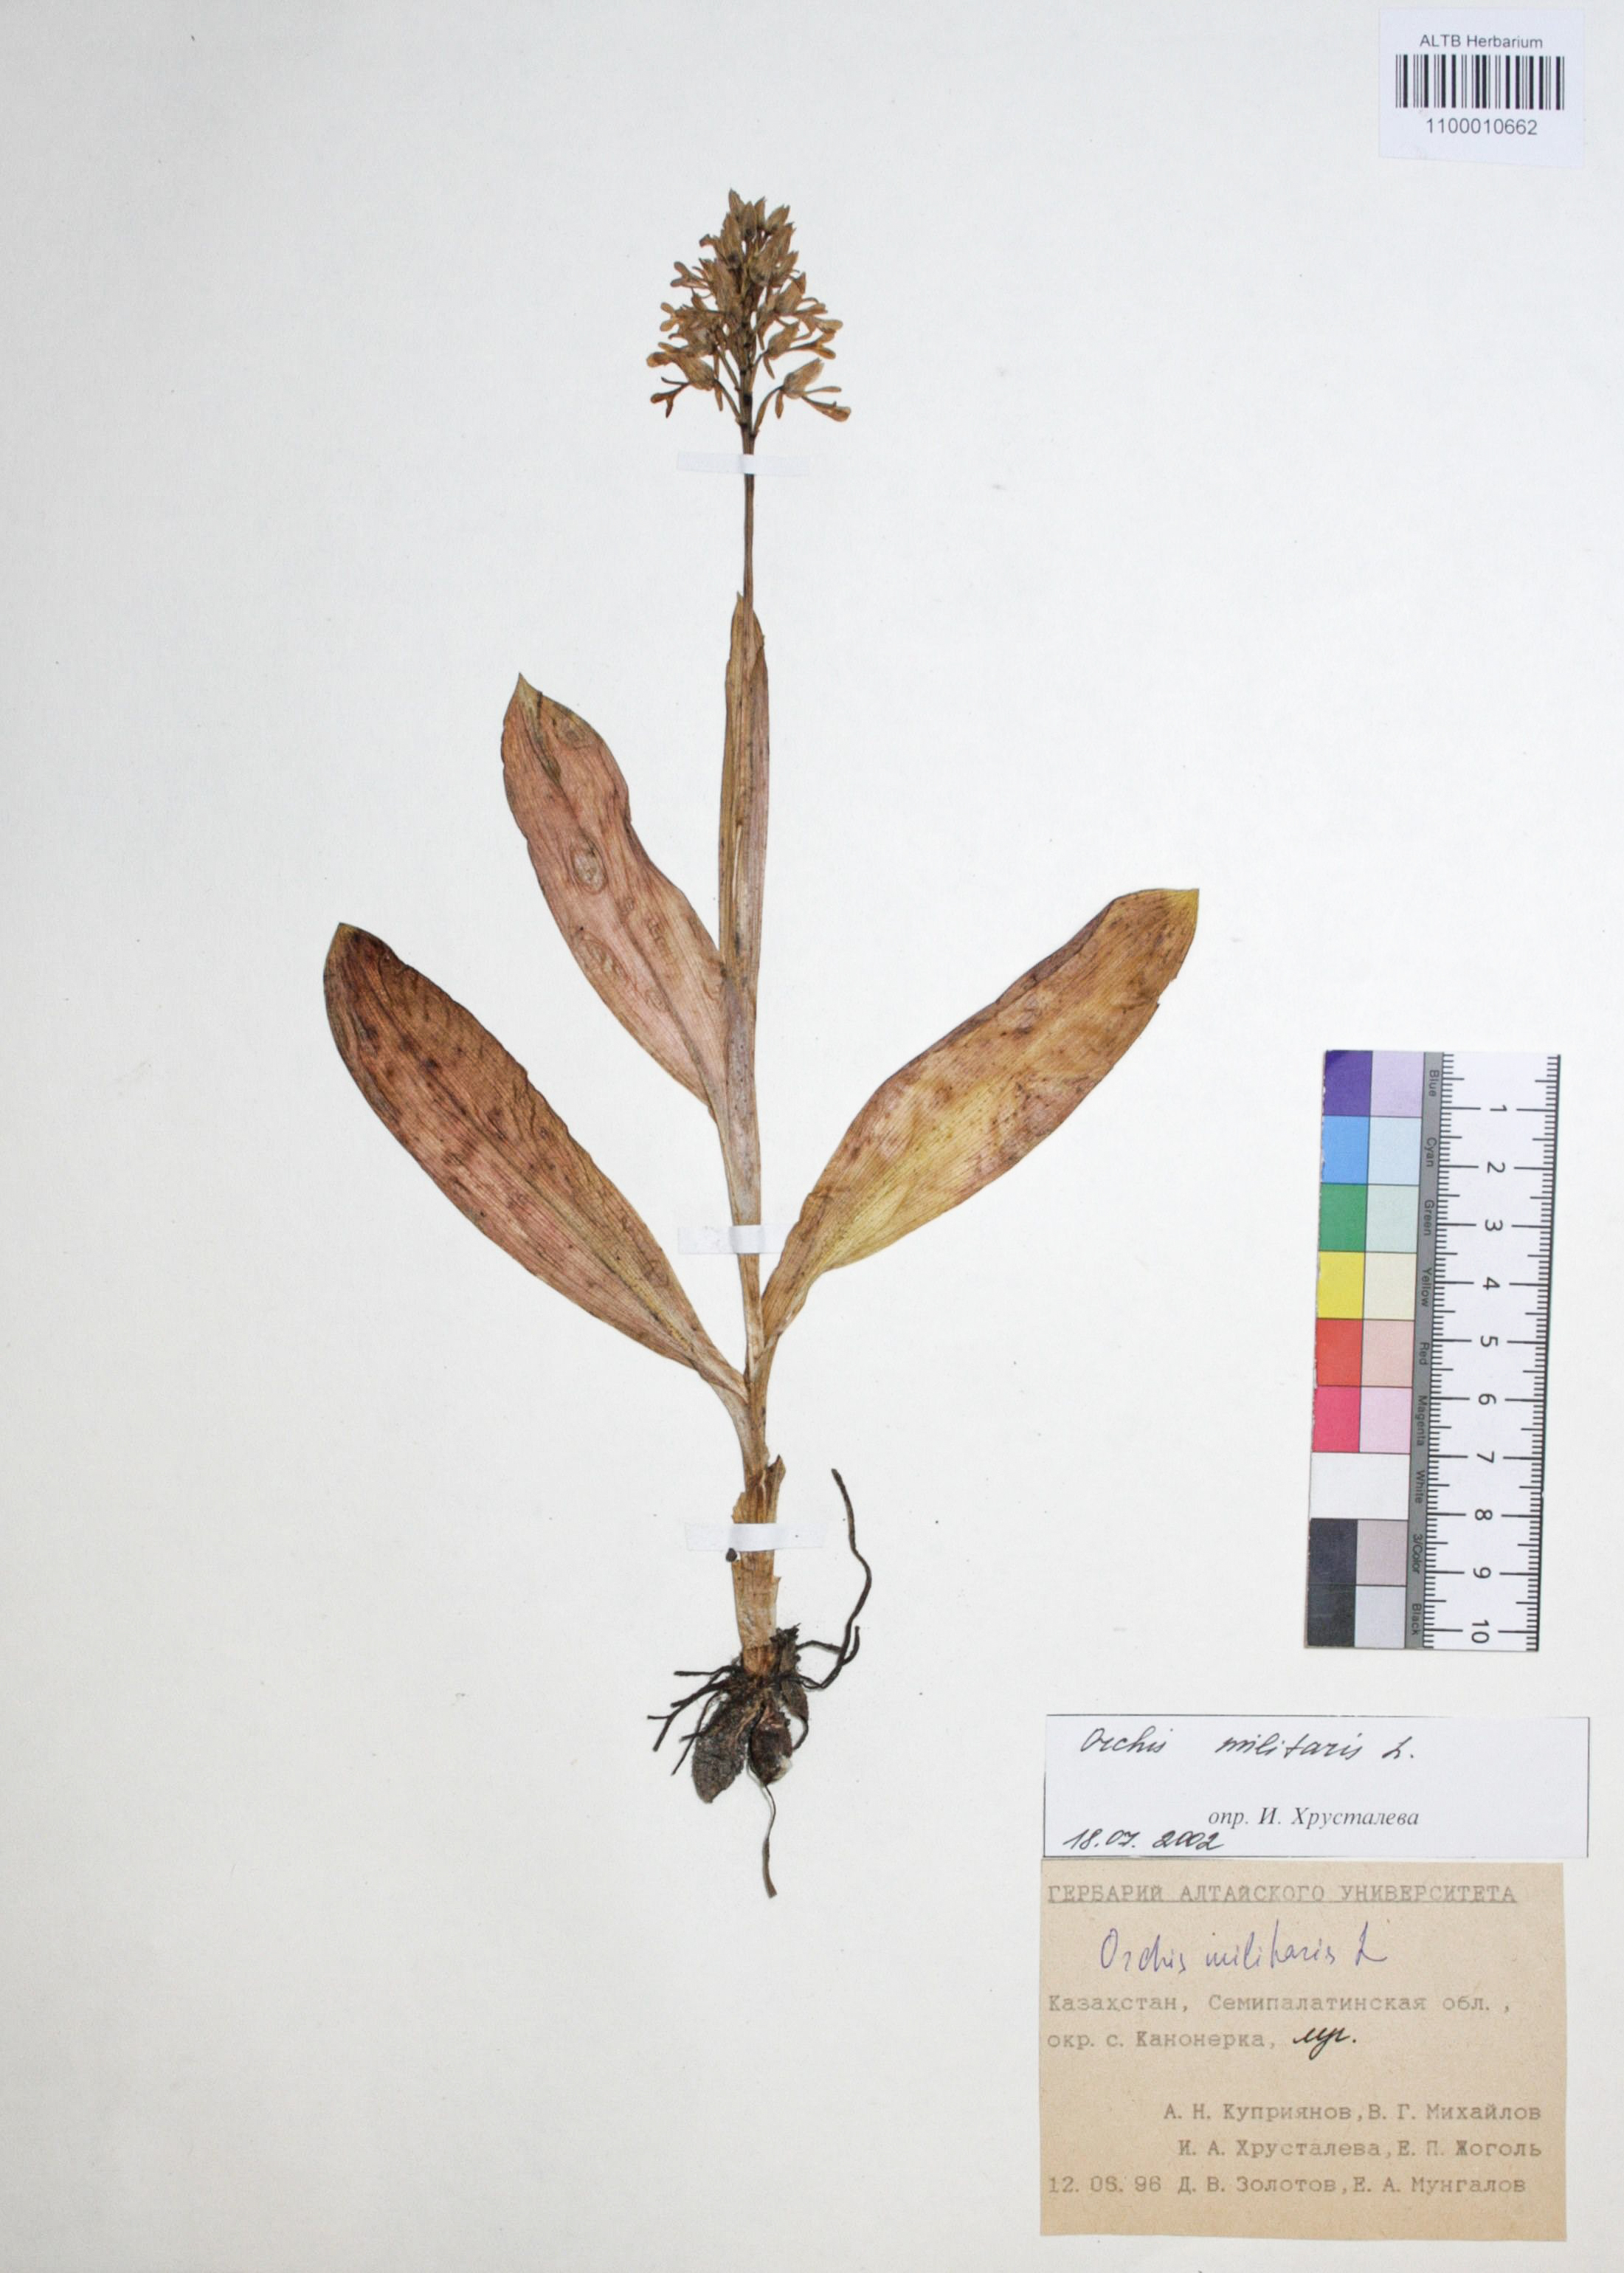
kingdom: Plantae
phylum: Tracheophyta
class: Liliopsida
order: Asparagales
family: Orchidaceae
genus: Orchis
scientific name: Orchis militaris
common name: Military orchid
